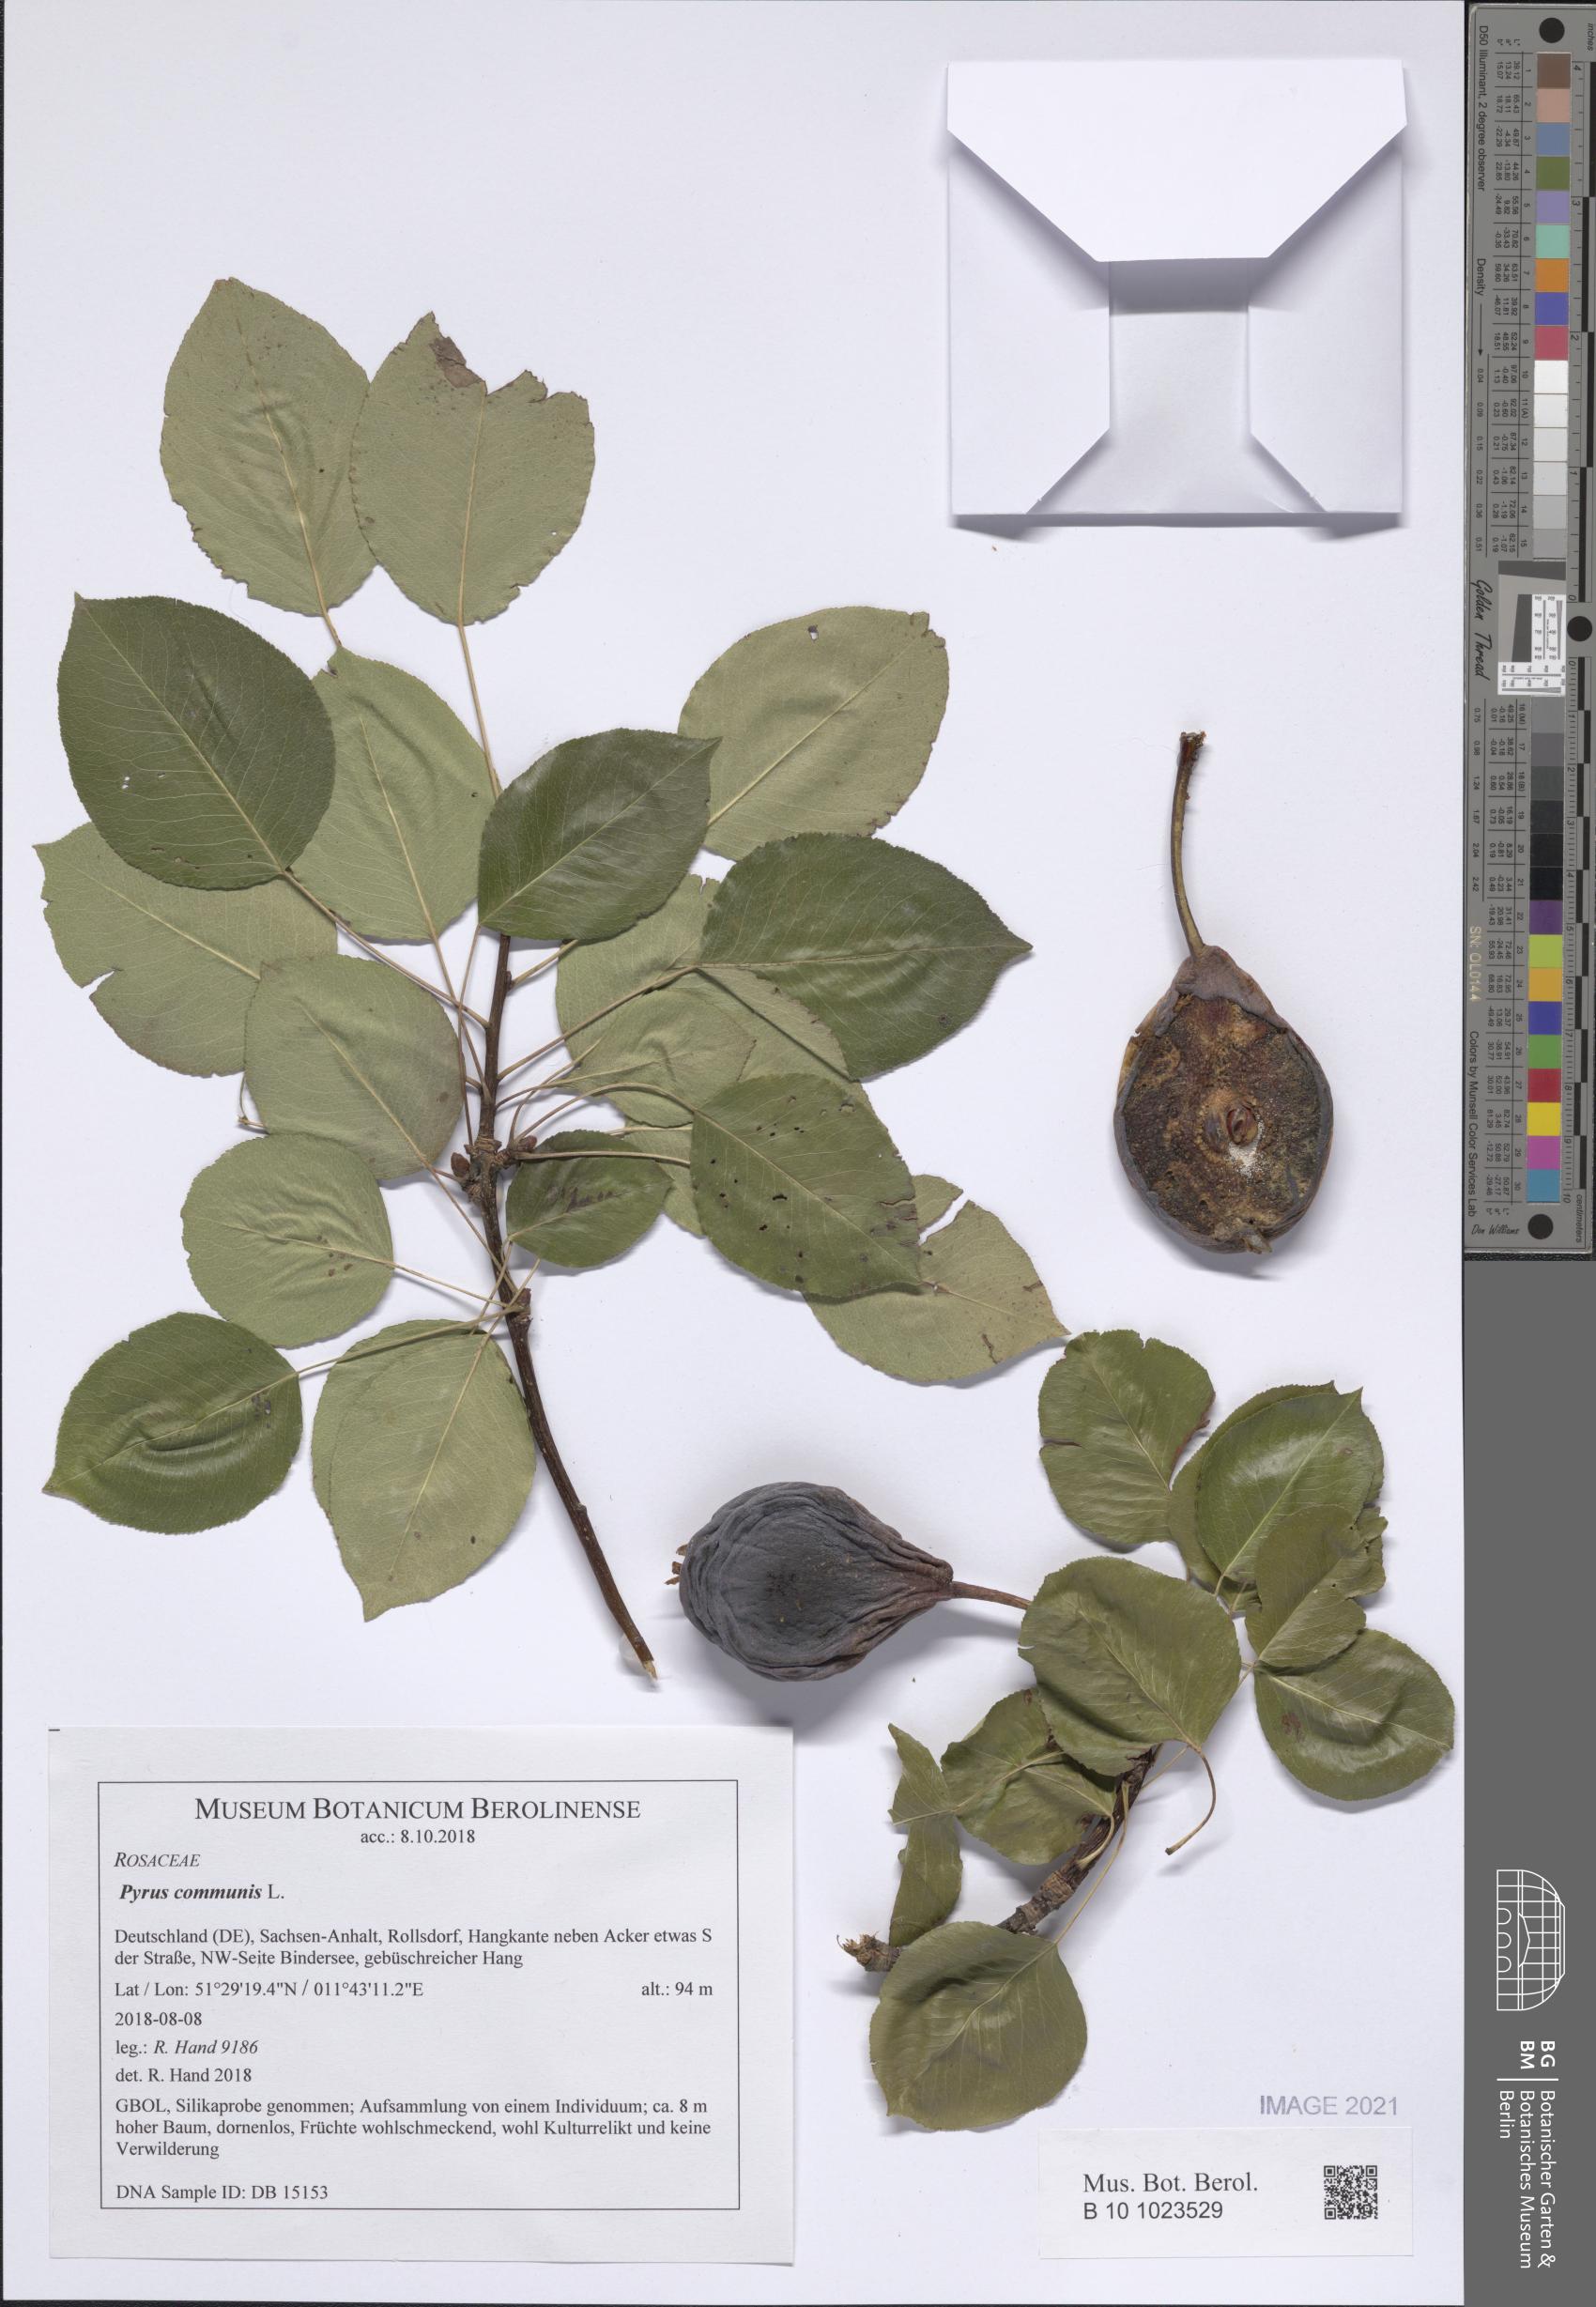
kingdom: Plantae
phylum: Tracheophyta
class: Magnoliopsida
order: Rosales
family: Rosaceae
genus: Pyrus
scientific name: Pyrus communis
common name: Pear
